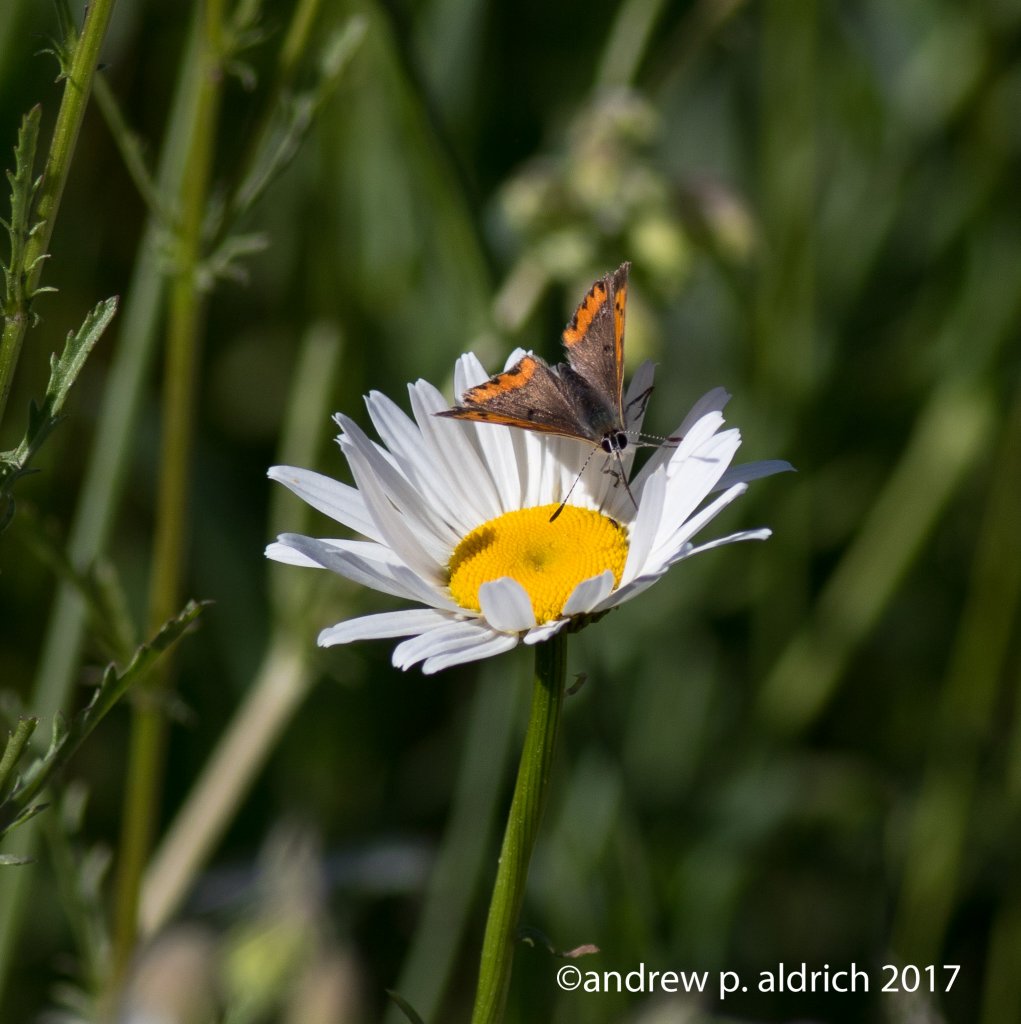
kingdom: Animalia
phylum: Arthropoda
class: Insecta
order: Lepidoptera
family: Lycaenidae
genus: Lycaena
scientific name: Lycaena phlaeas
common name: American Copper
